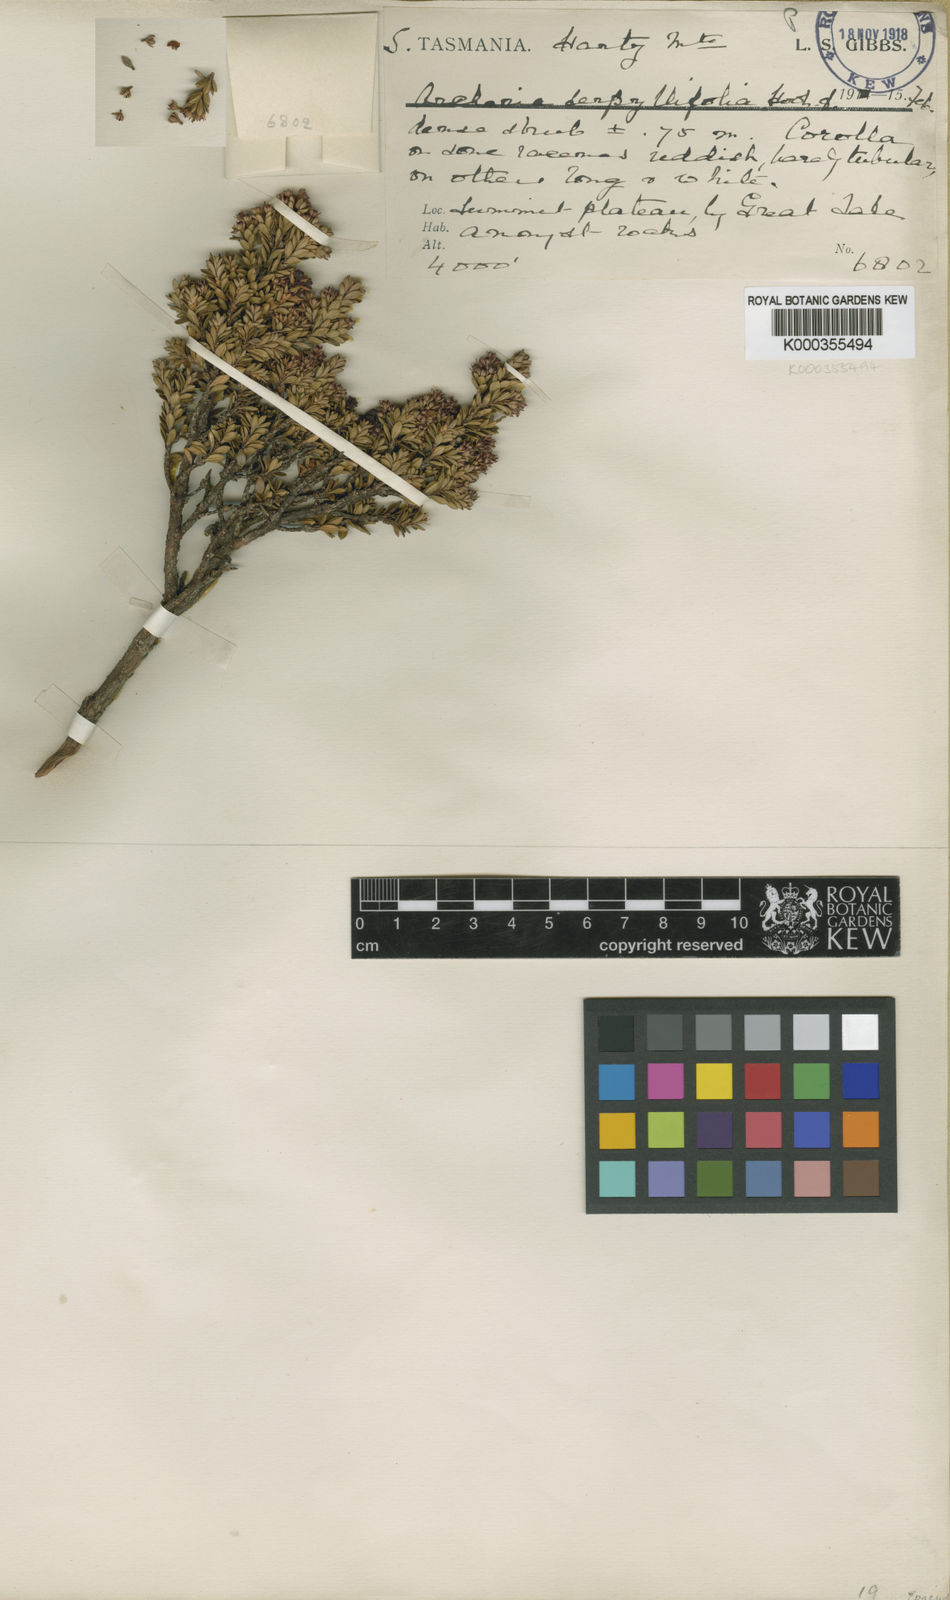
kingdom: Plantae
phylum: Tracheophyta
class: Magnoliopsida
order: Ericales
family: Ericaceae
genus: Archeria
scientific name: Archeria serpyllifolia
